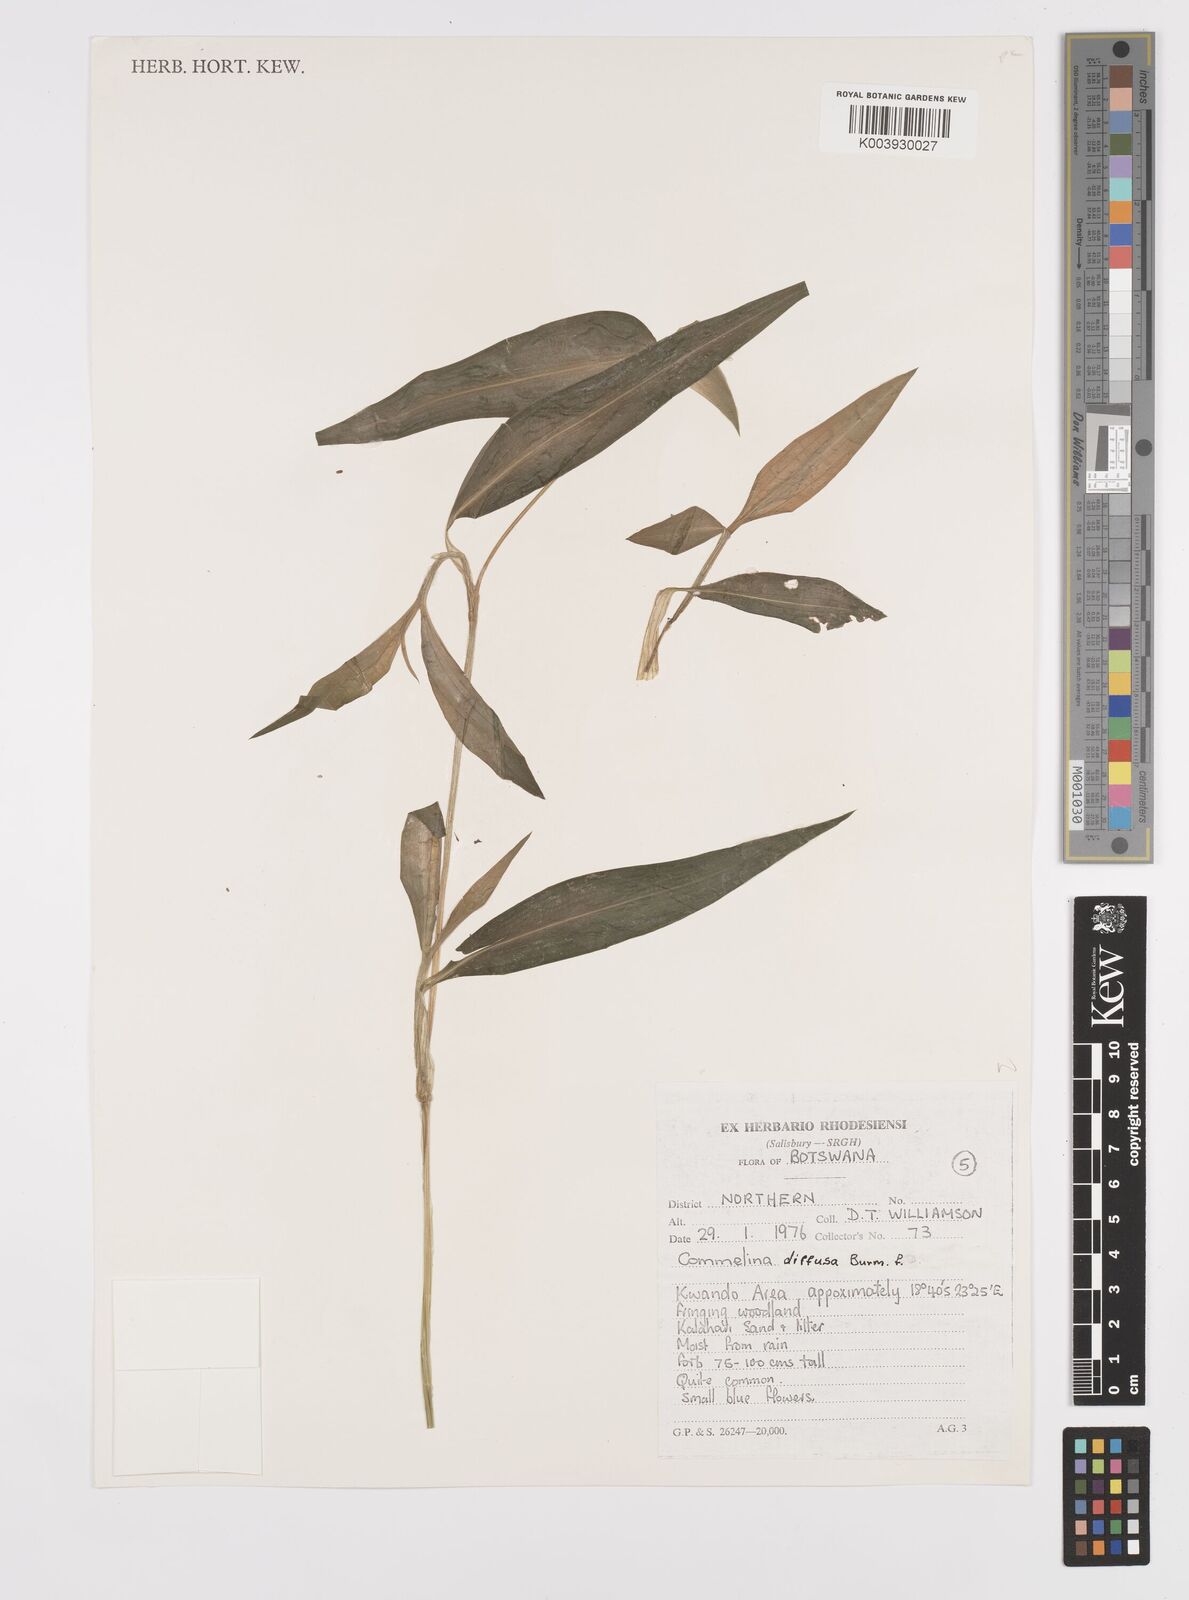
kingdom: Plantae
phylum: Tracheophyta
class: Liliopsida
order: Commelinales
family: Commelinaceae
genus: Commelina
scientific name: Commelina diffusa
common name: Climbing dayflower
